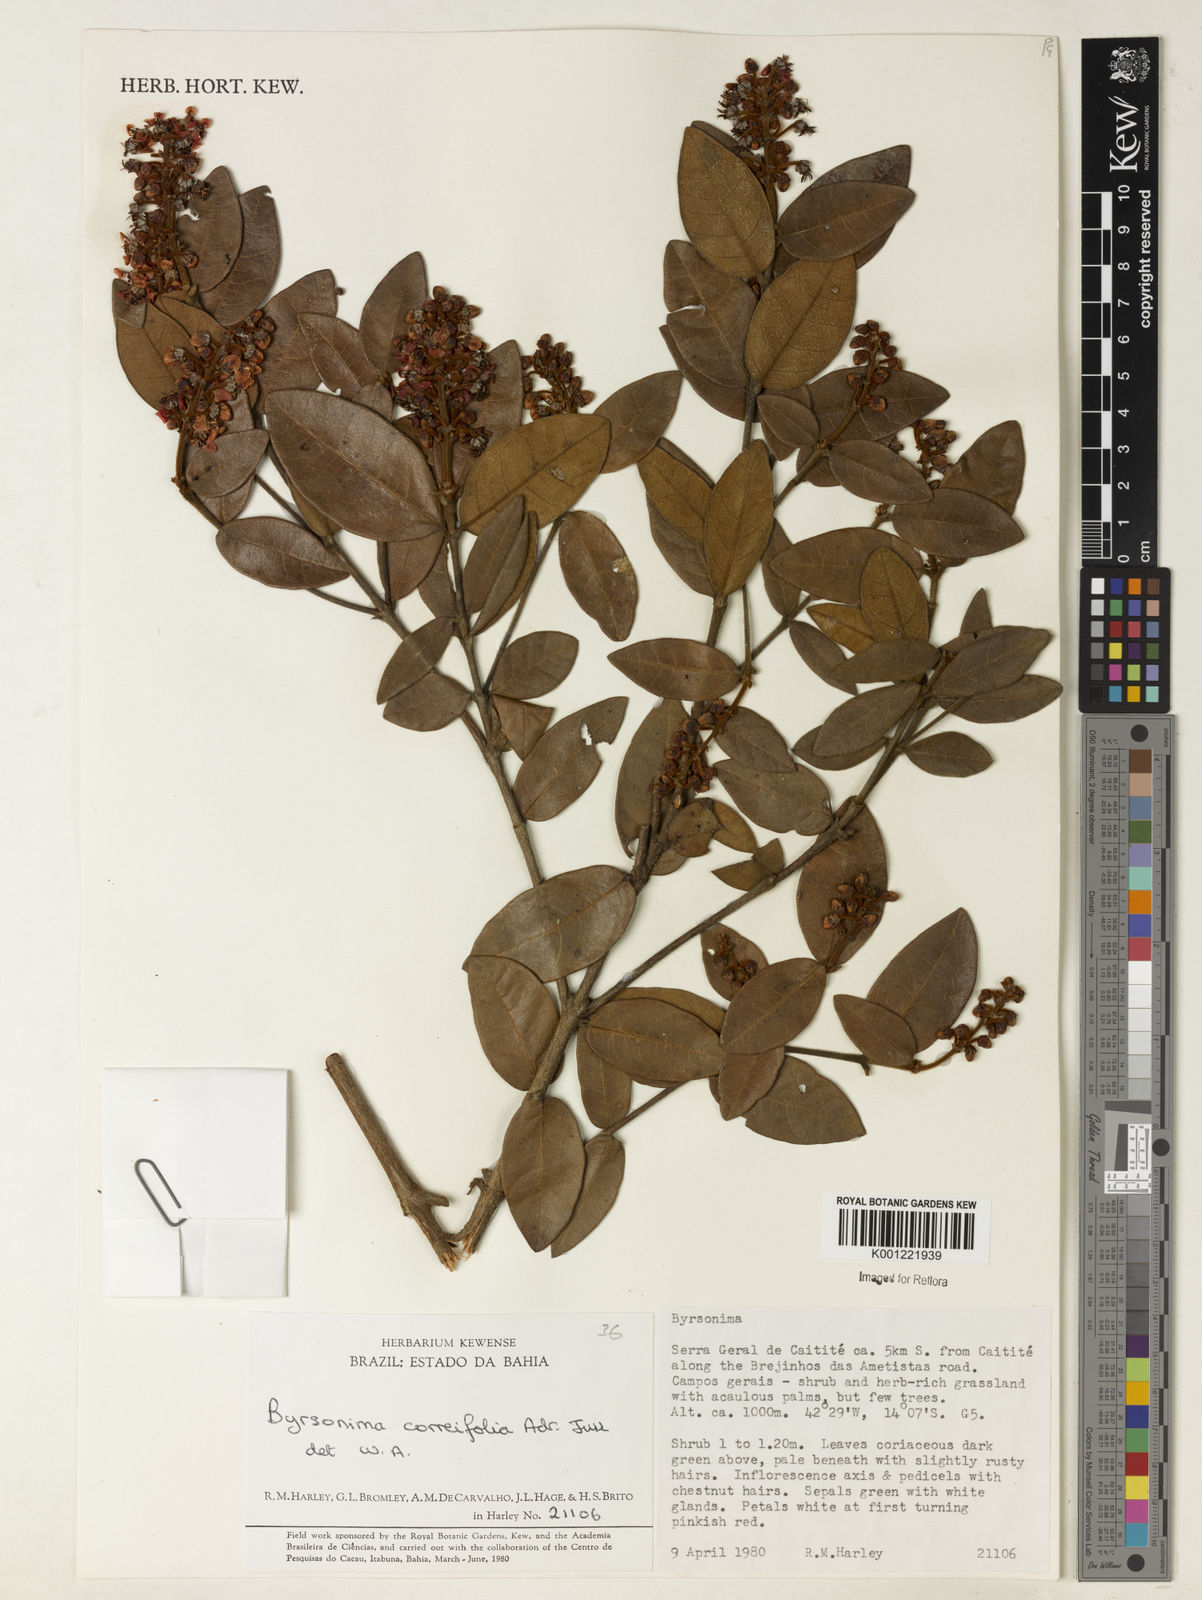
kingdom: Plantae
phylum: Tracheophyta
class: Magnoliopsida
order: Malpighiales
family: Malpighiaceae
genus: Byrsonima
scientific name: Byrsonima correifolia
